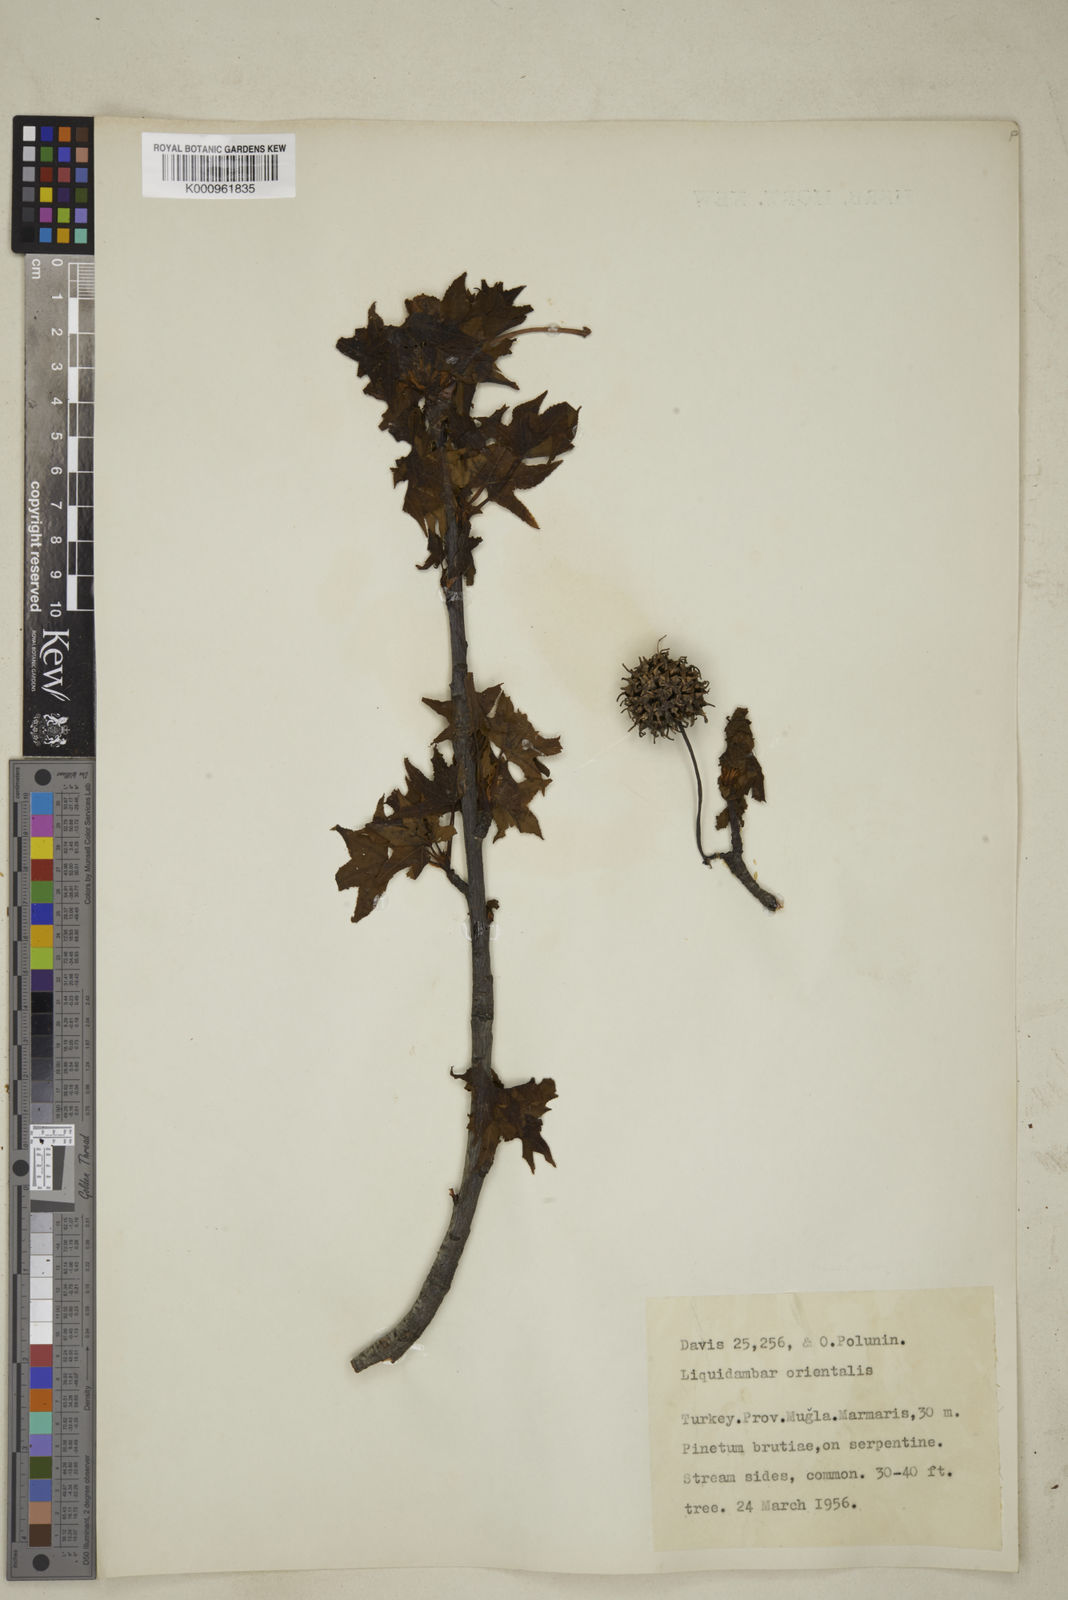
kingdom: Plantae
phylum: Tracheophyta
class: Magnoliopsida
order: Saxifragales
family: Altingiaceae
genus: Liquidambar
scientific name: Liquidambar orientalis
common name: Oriental sweetgum
